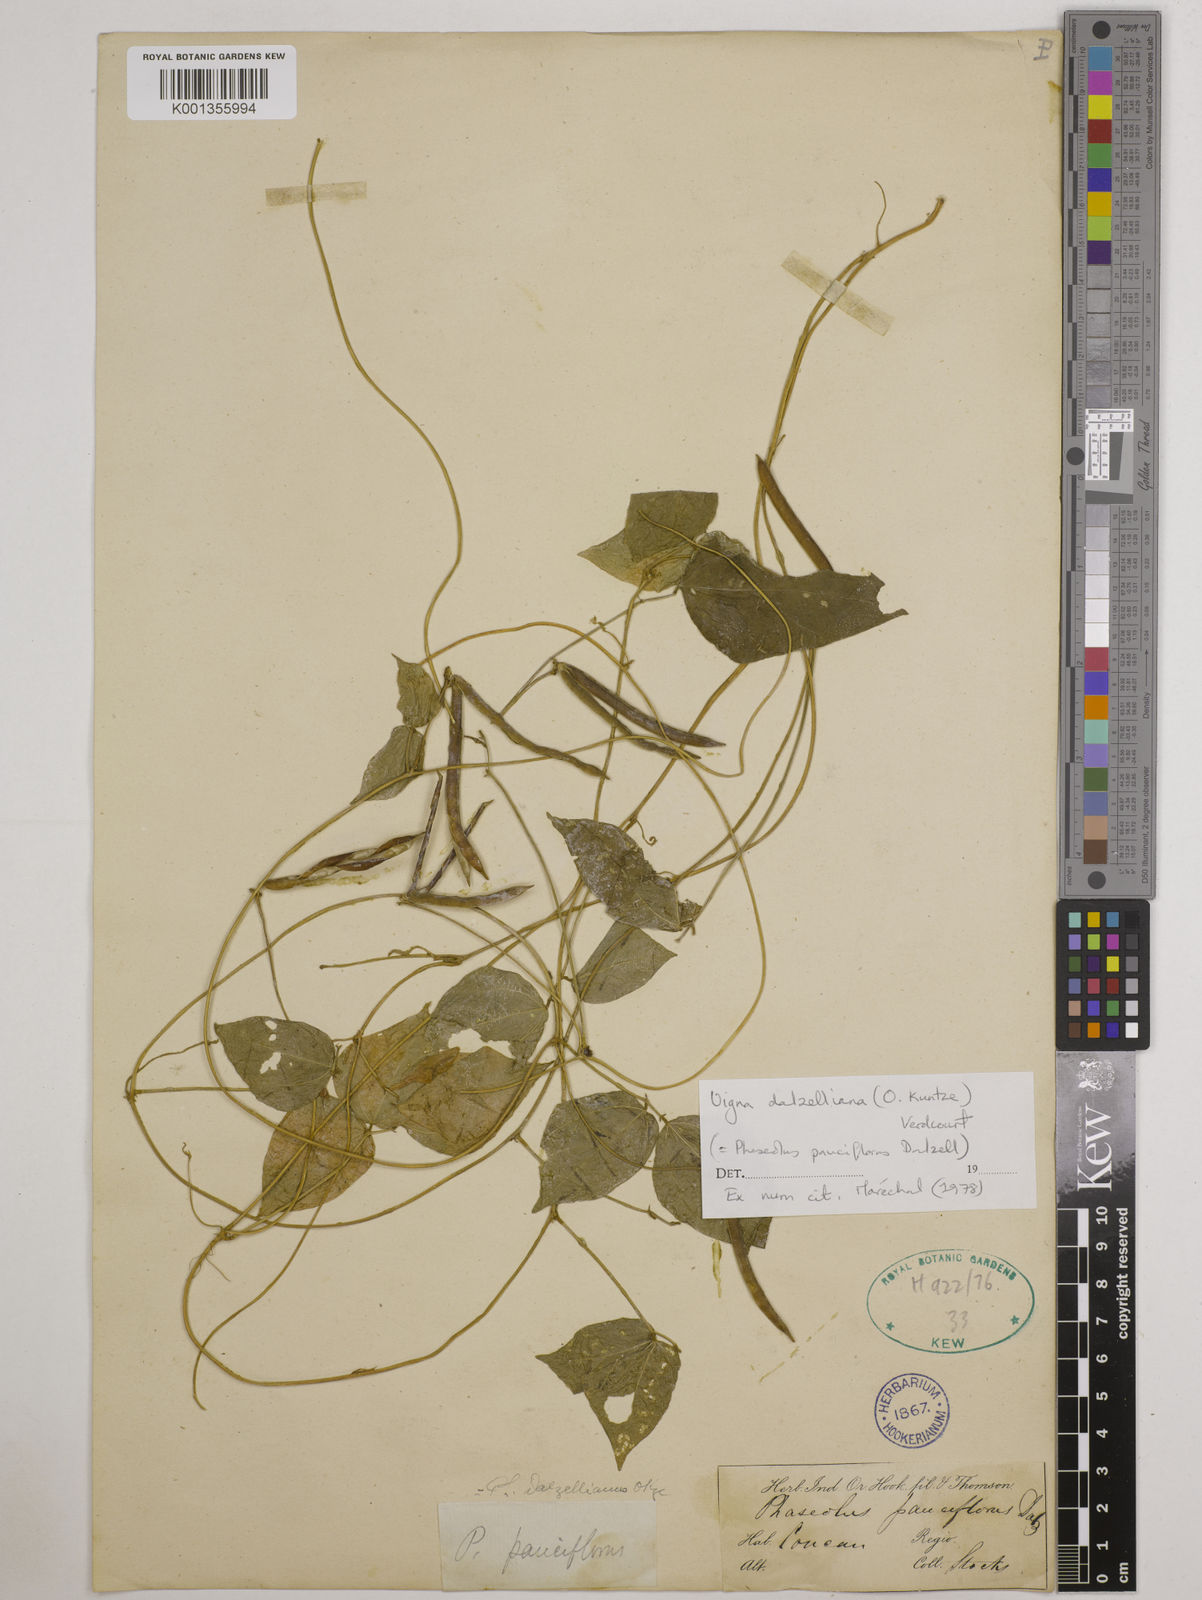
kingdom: Plantae
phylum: Tracheophyta
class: Magnoliopsida
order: Fabales
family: Fabaceae
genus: Vigna
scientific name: Vigna dalzelliana
